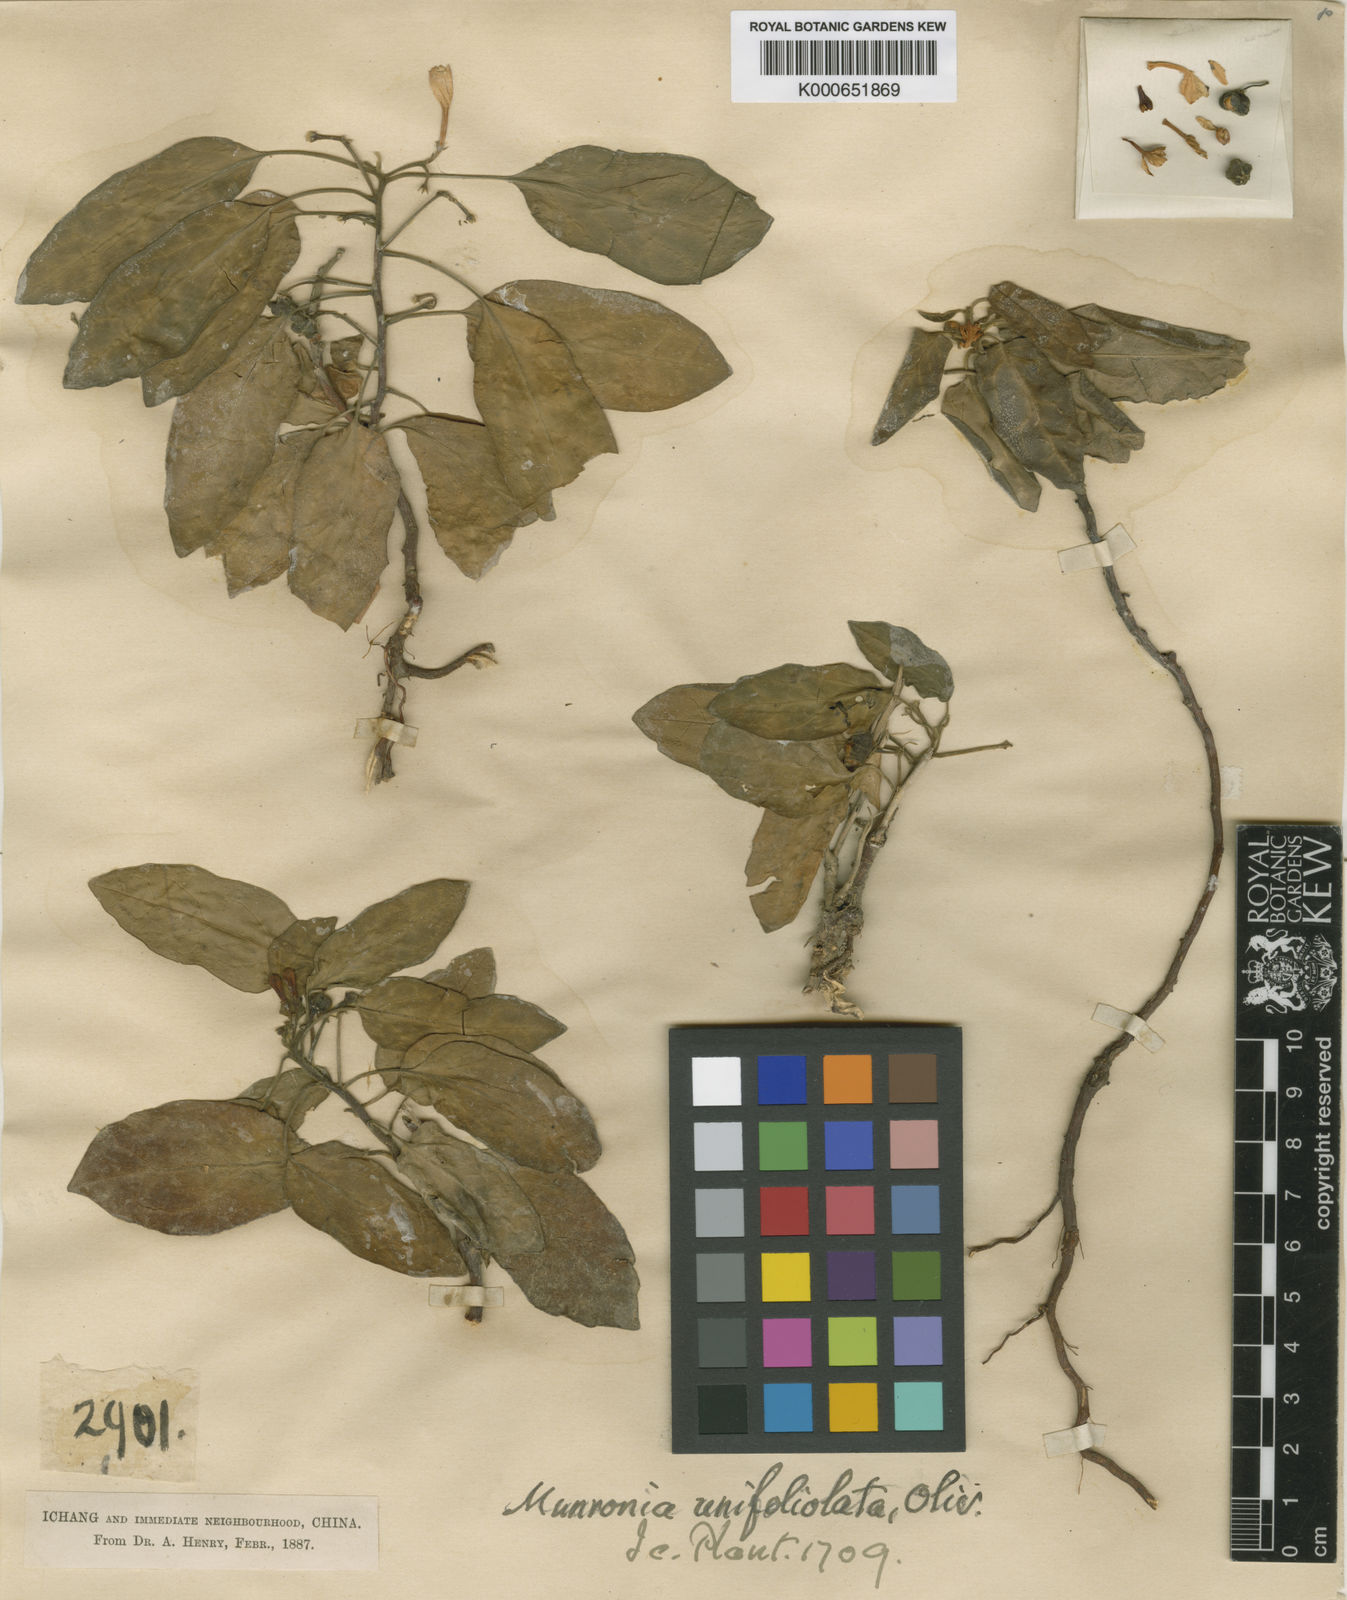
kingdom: Plantae
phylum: Tracheophyta
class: Magnoliopsida
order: Sapindales
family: Meliaceae
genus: Munronia
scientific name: Munronia unifoliolata
